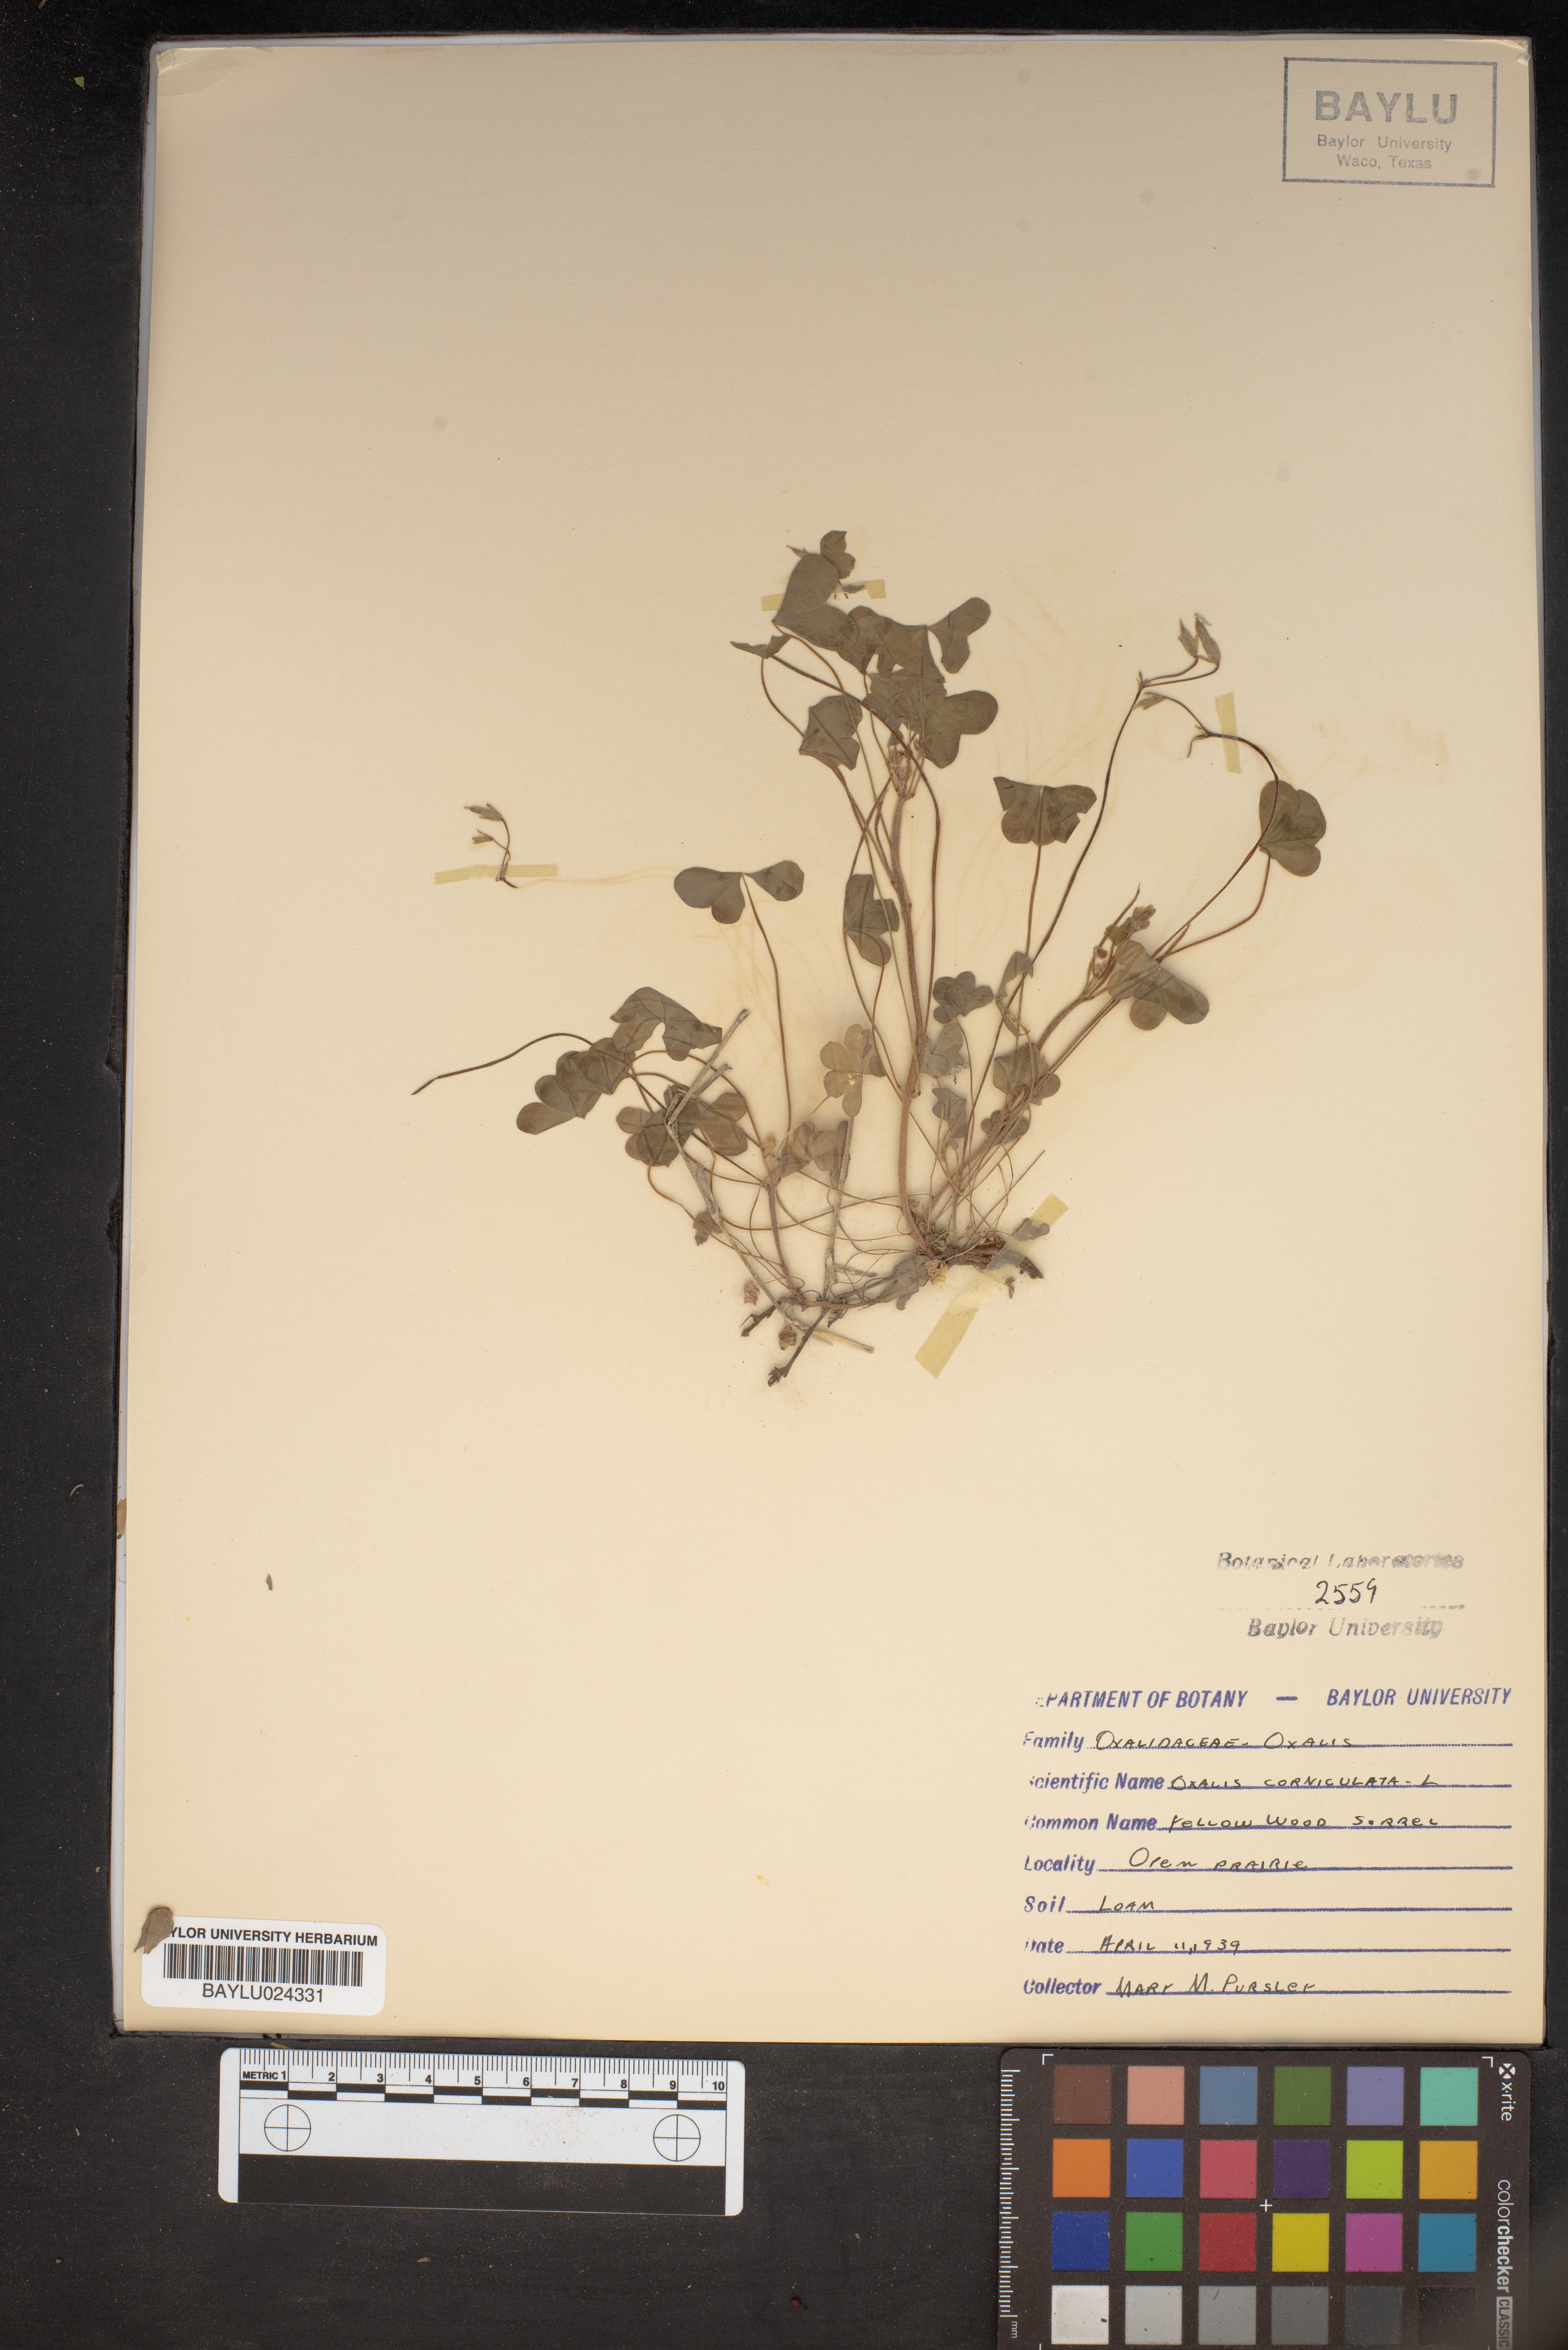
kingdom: Plantae
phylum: Tracheophyta
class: Magnoliopsida
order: Oxalidales
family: Oxalidaceae
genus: Oxalis
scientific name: Oxalis corniculata
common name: Procumbent yellow-sorrel
